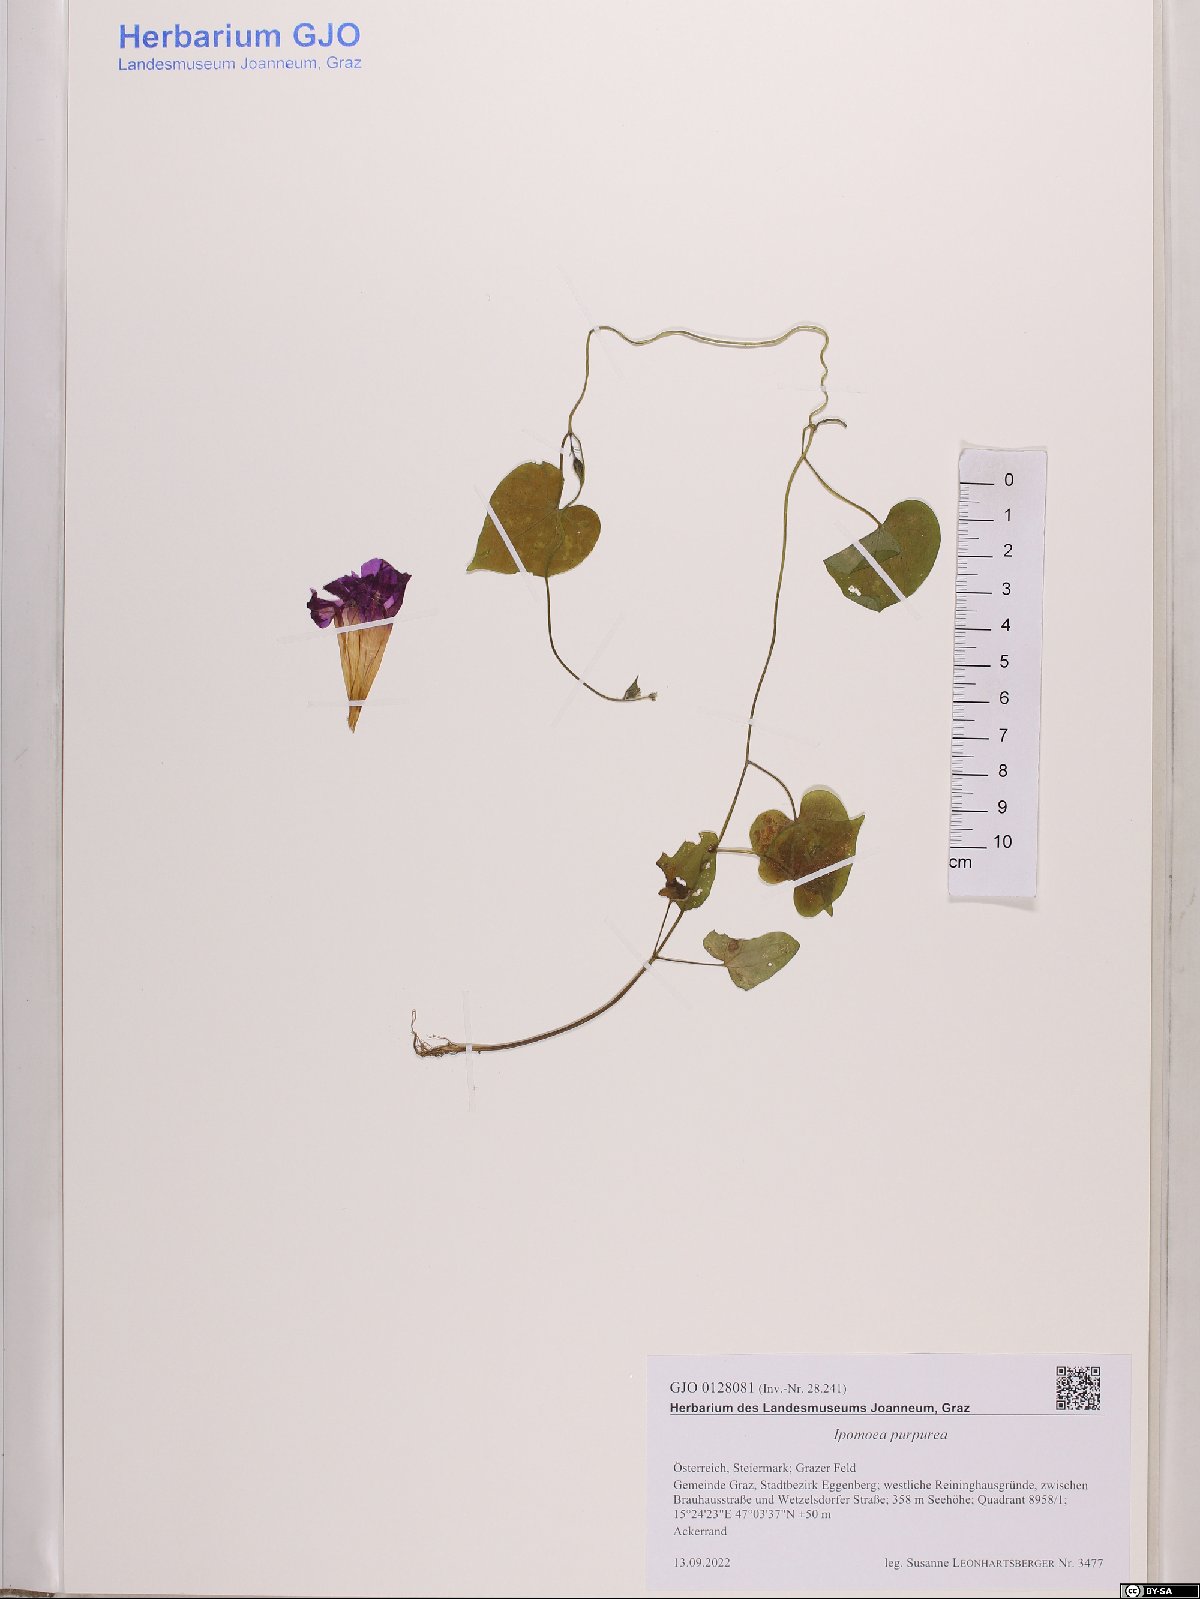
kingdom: Plantae
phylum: Tracheophyta
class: Magnoliopsida
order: Solanales
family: Convolvulaceae
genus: Ipomoea
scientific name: Ipomoea purpurea
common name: Common morning-glory
